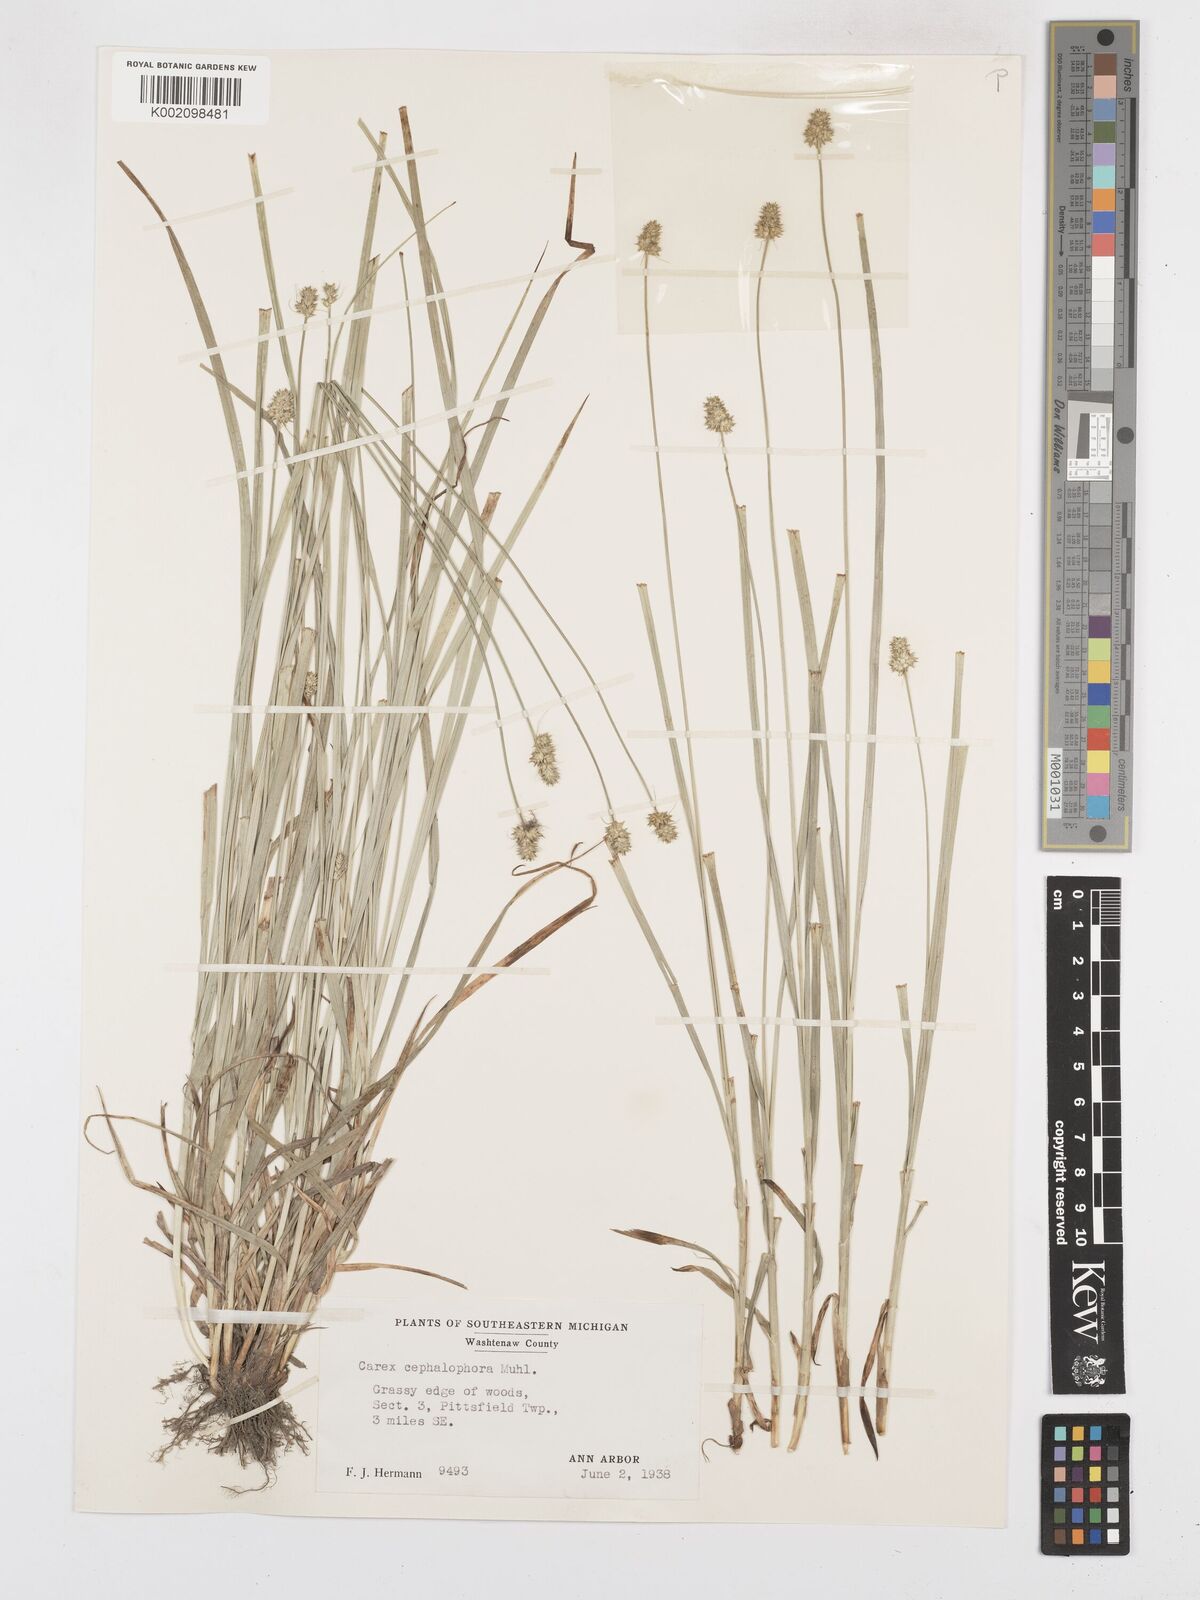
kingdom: Plantae
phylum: Tracheophyta
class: Liliopsida
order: Poales
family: Cyperaceae
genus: Carex
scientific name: Carex cephalophora
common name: Oval-headed sedge
